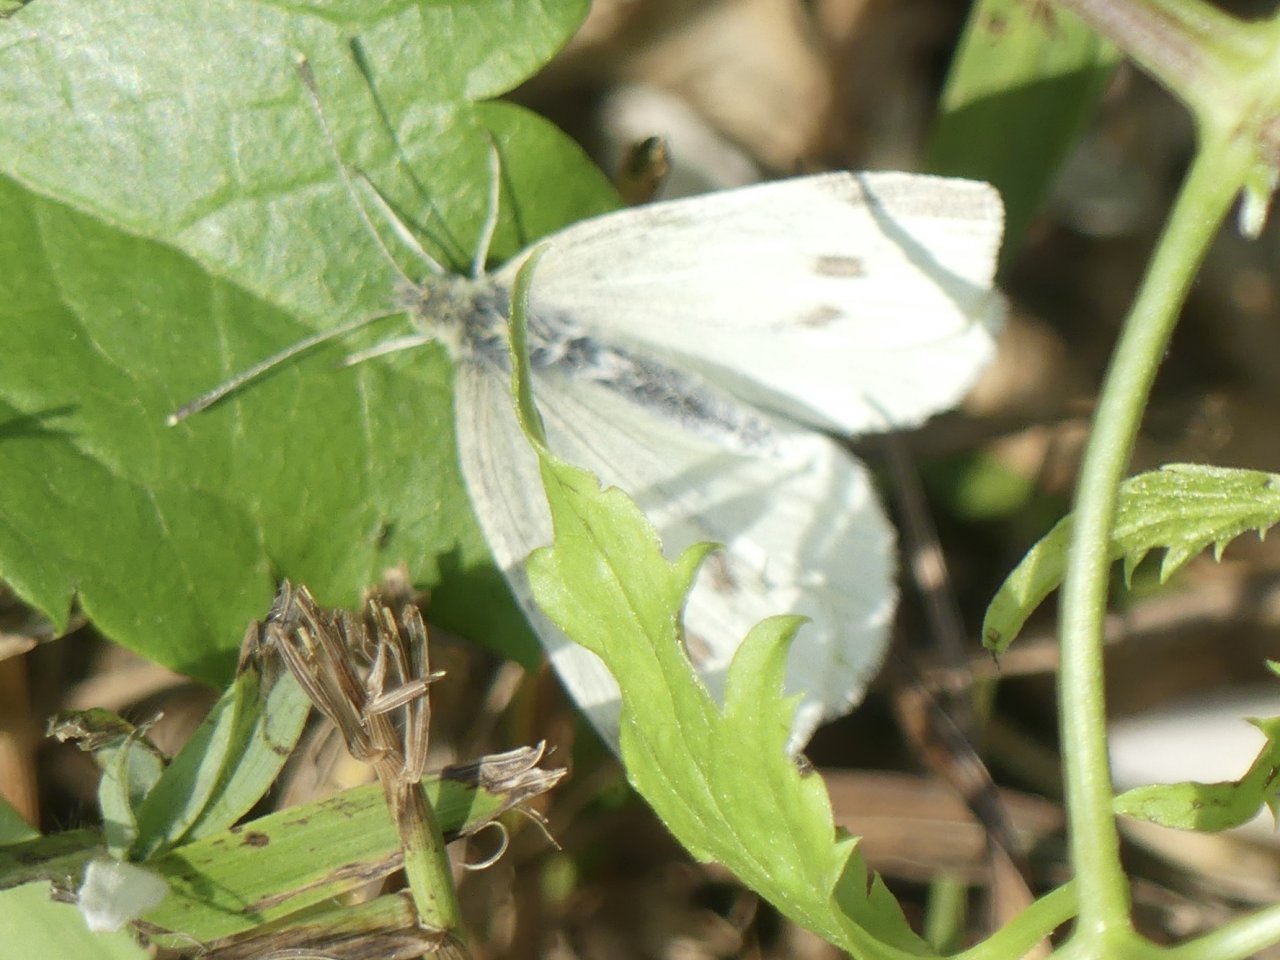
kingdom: Animalia
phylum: Arthropoda
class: Insecta
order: Lepidoptera
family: Pieridae
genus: Pieris
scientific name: Pieris rapae
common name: Cabbage White
